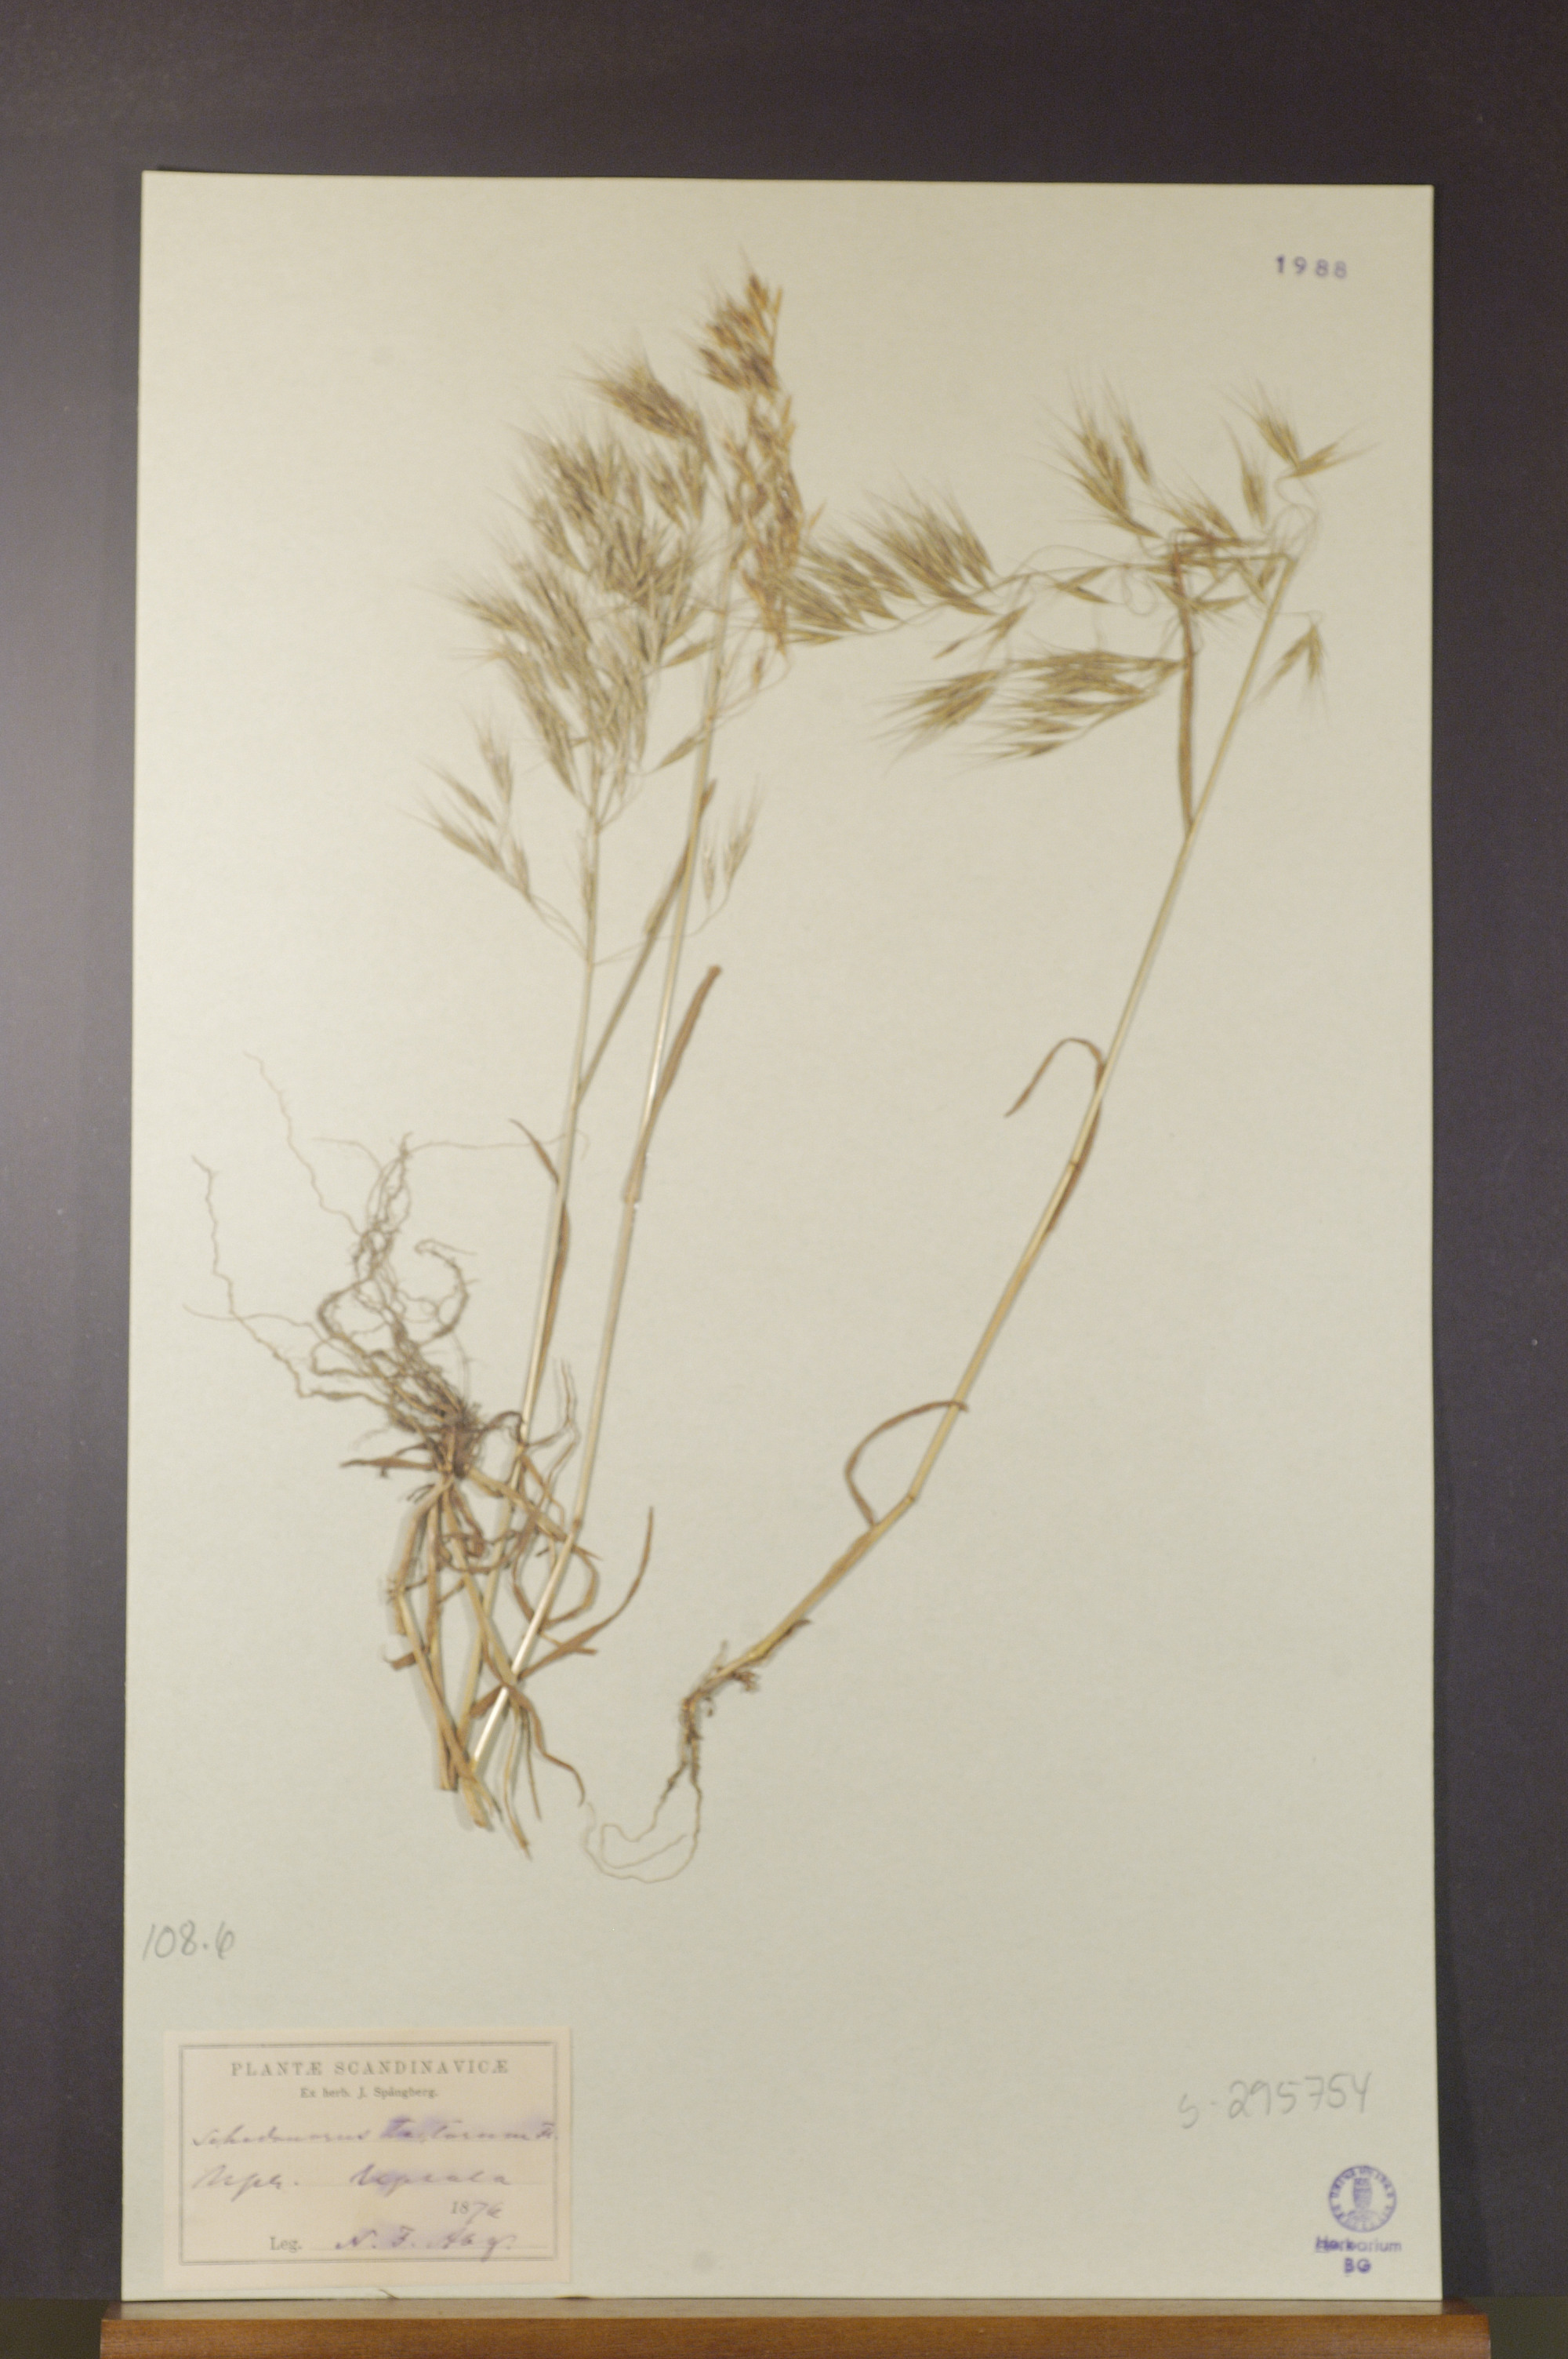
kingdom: Plantae
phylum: Tracheophyta
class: Liliopsida
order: Poales
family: Poaceae
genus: Bromus
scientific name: Bromus tectorum
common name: Cheatgrass
